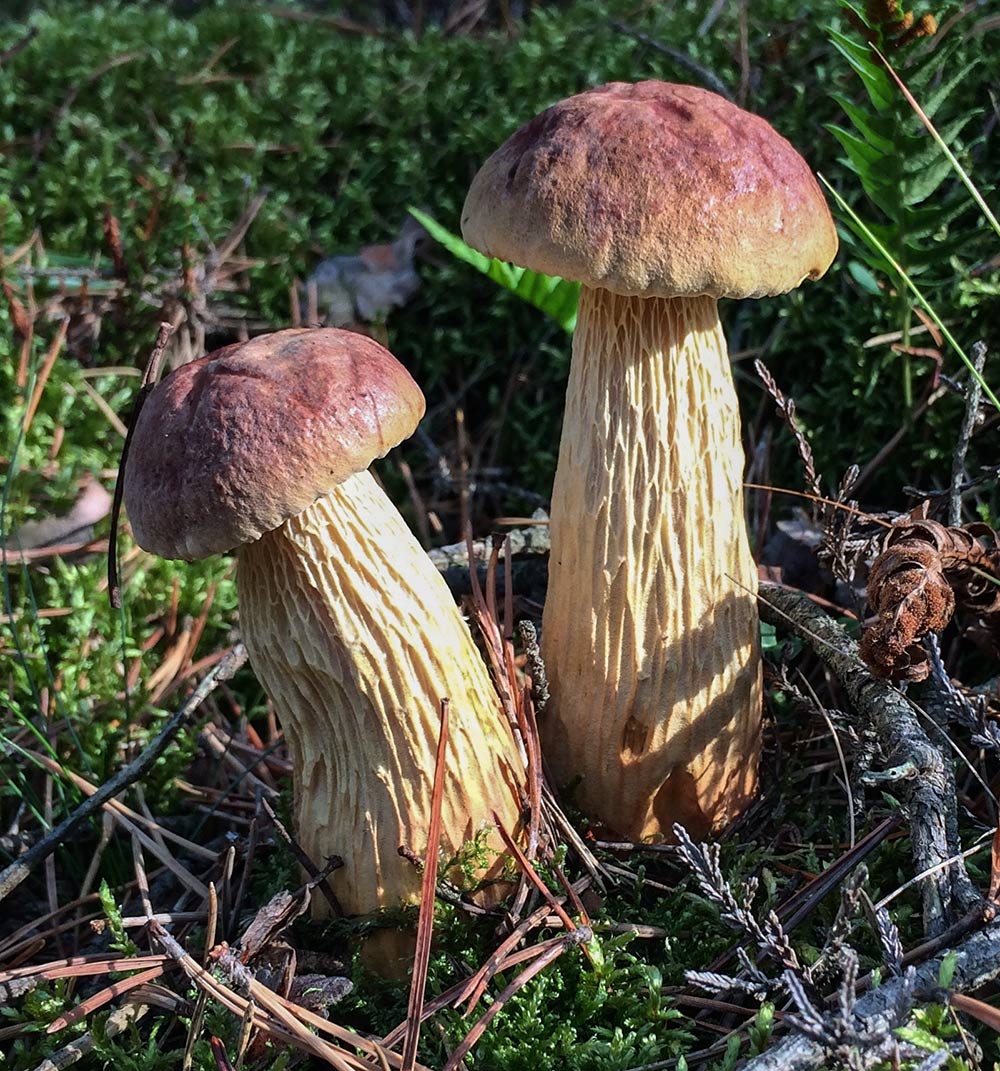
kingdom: Fungi
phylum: Basidiomycota
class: Agaricomycetes
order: Boletales
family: Boletaceae
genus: Aureoboletus
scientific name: Aureoboletus projectellus
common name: ribbestokket rørhat
